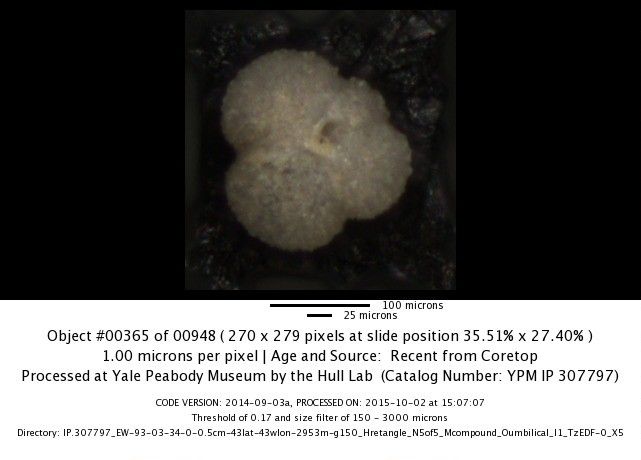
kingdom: Chromista
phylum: Foraminifera
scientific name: Foraminifera
